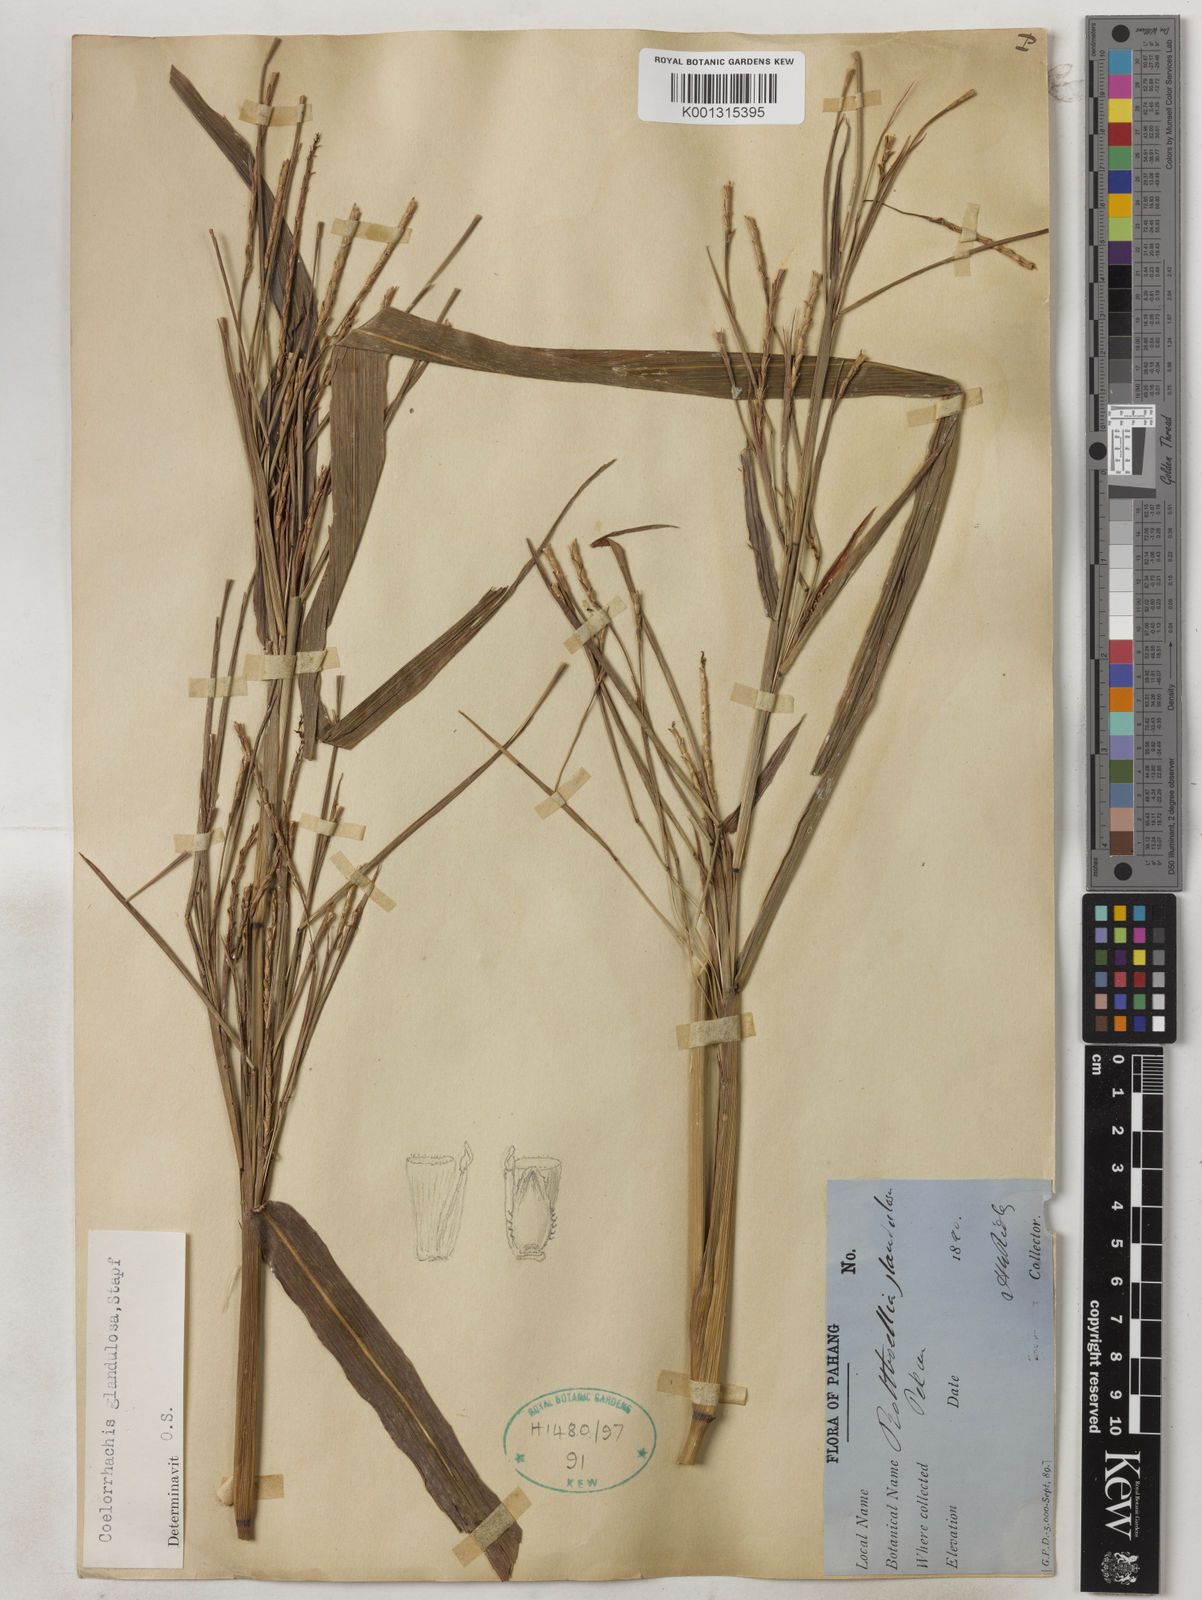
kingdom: Plantae
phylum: Tracheophyta
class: Liliopsida
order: Poales
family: Poaceae
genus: Rottboellia
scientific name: Rottboellia glandulosa
